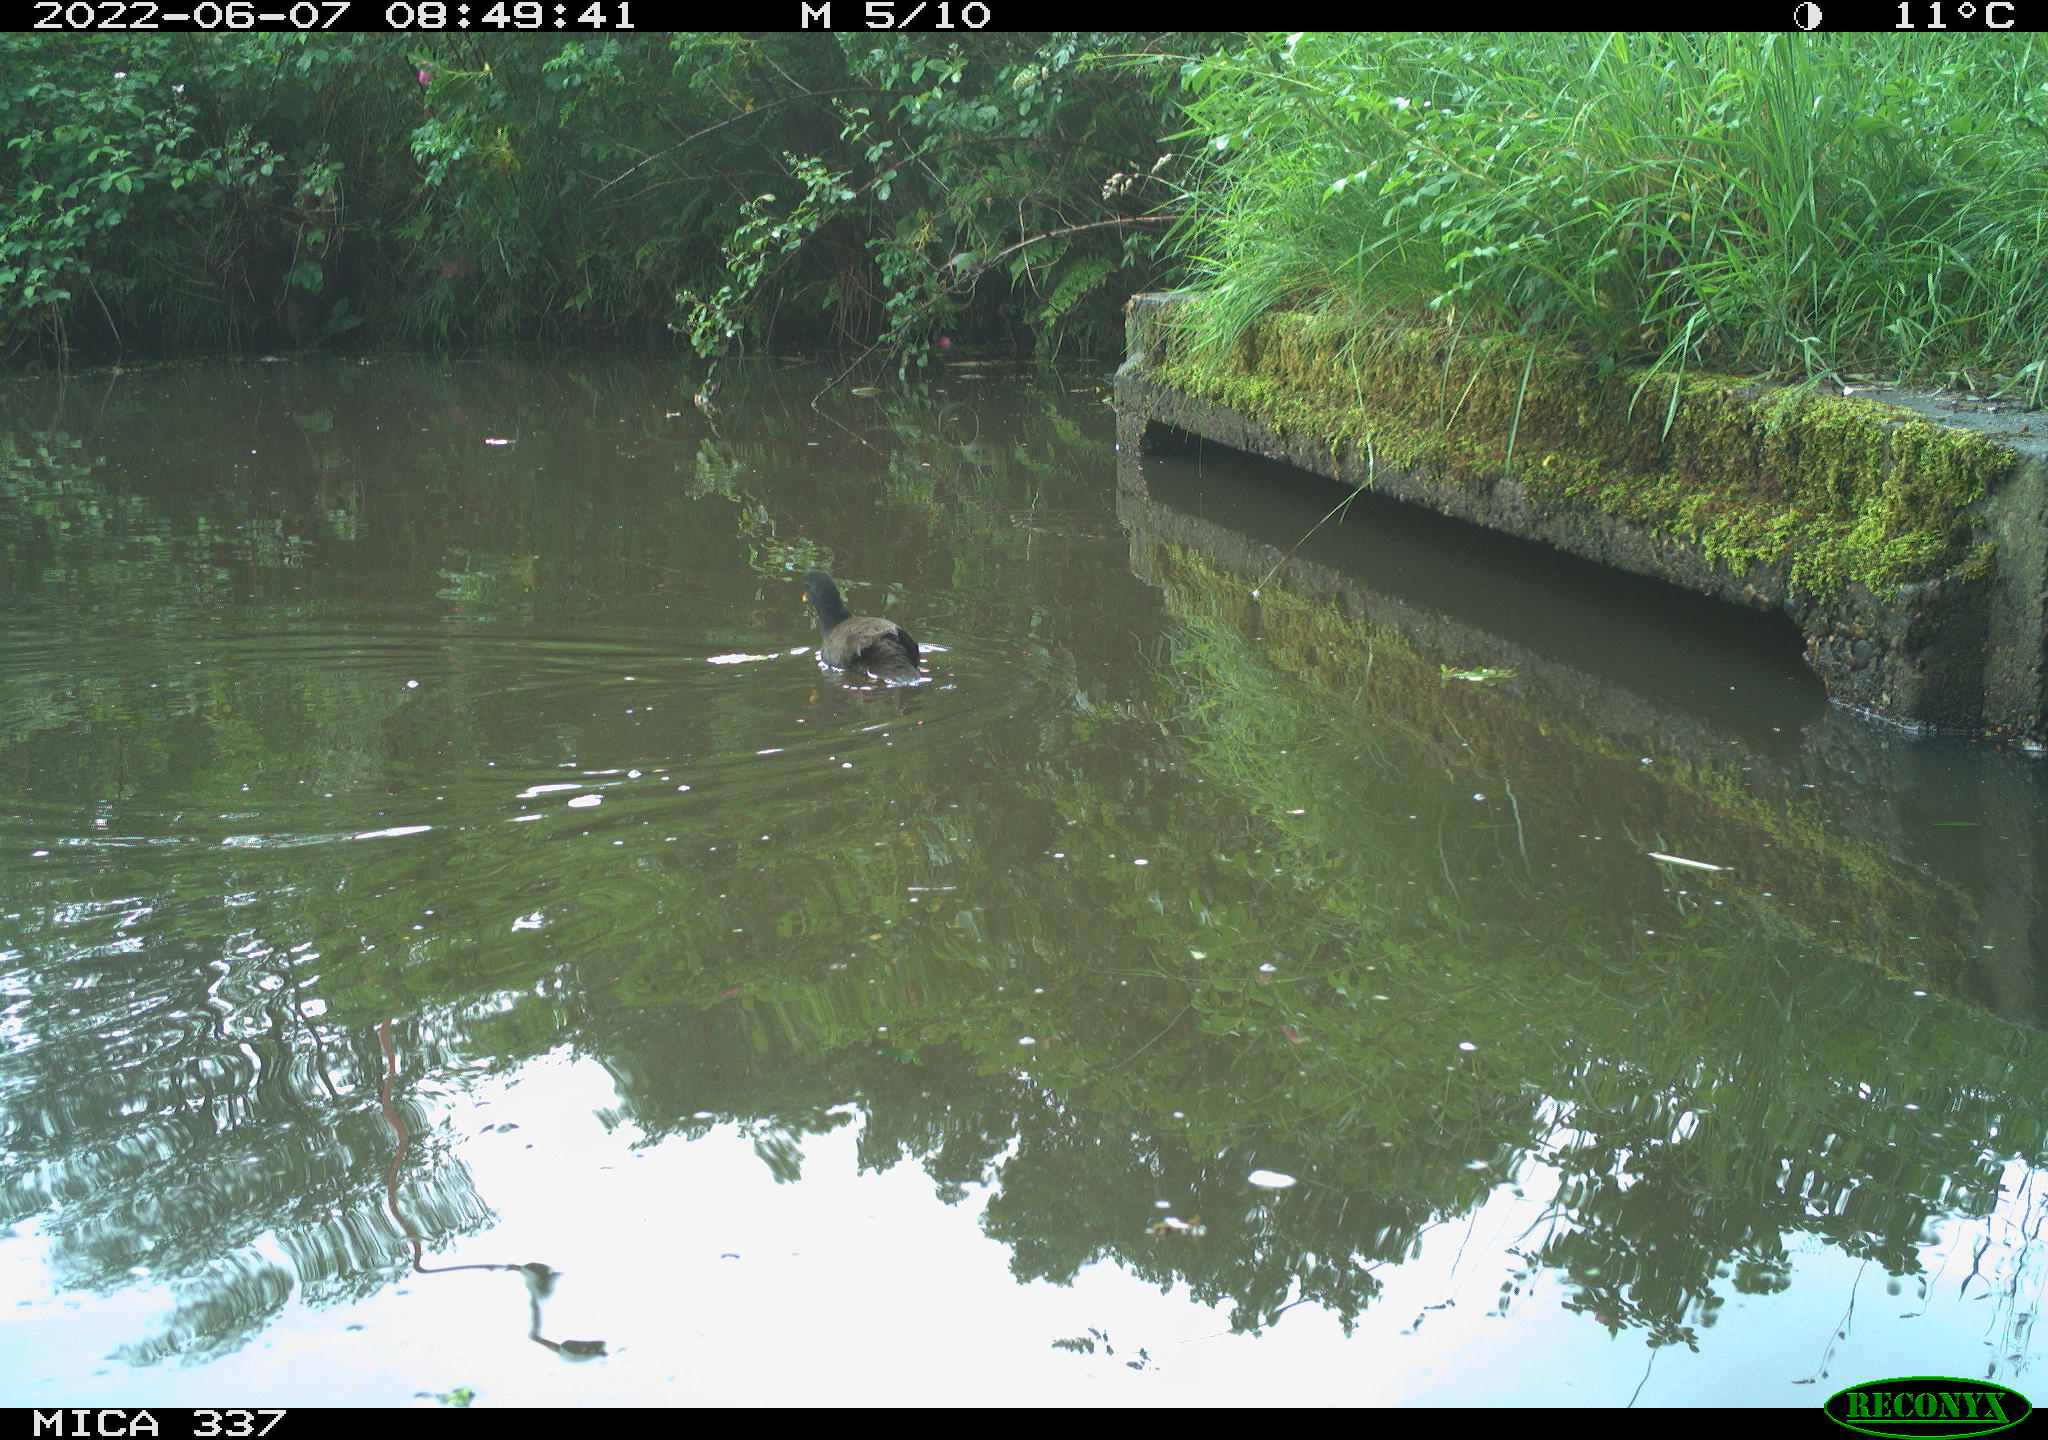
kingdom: Animalia
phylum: Chordata
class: Aves
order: Gruiformes
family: Rallidae
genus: Gallinula
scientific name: Gallinula chloropus
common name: Common moorhen
